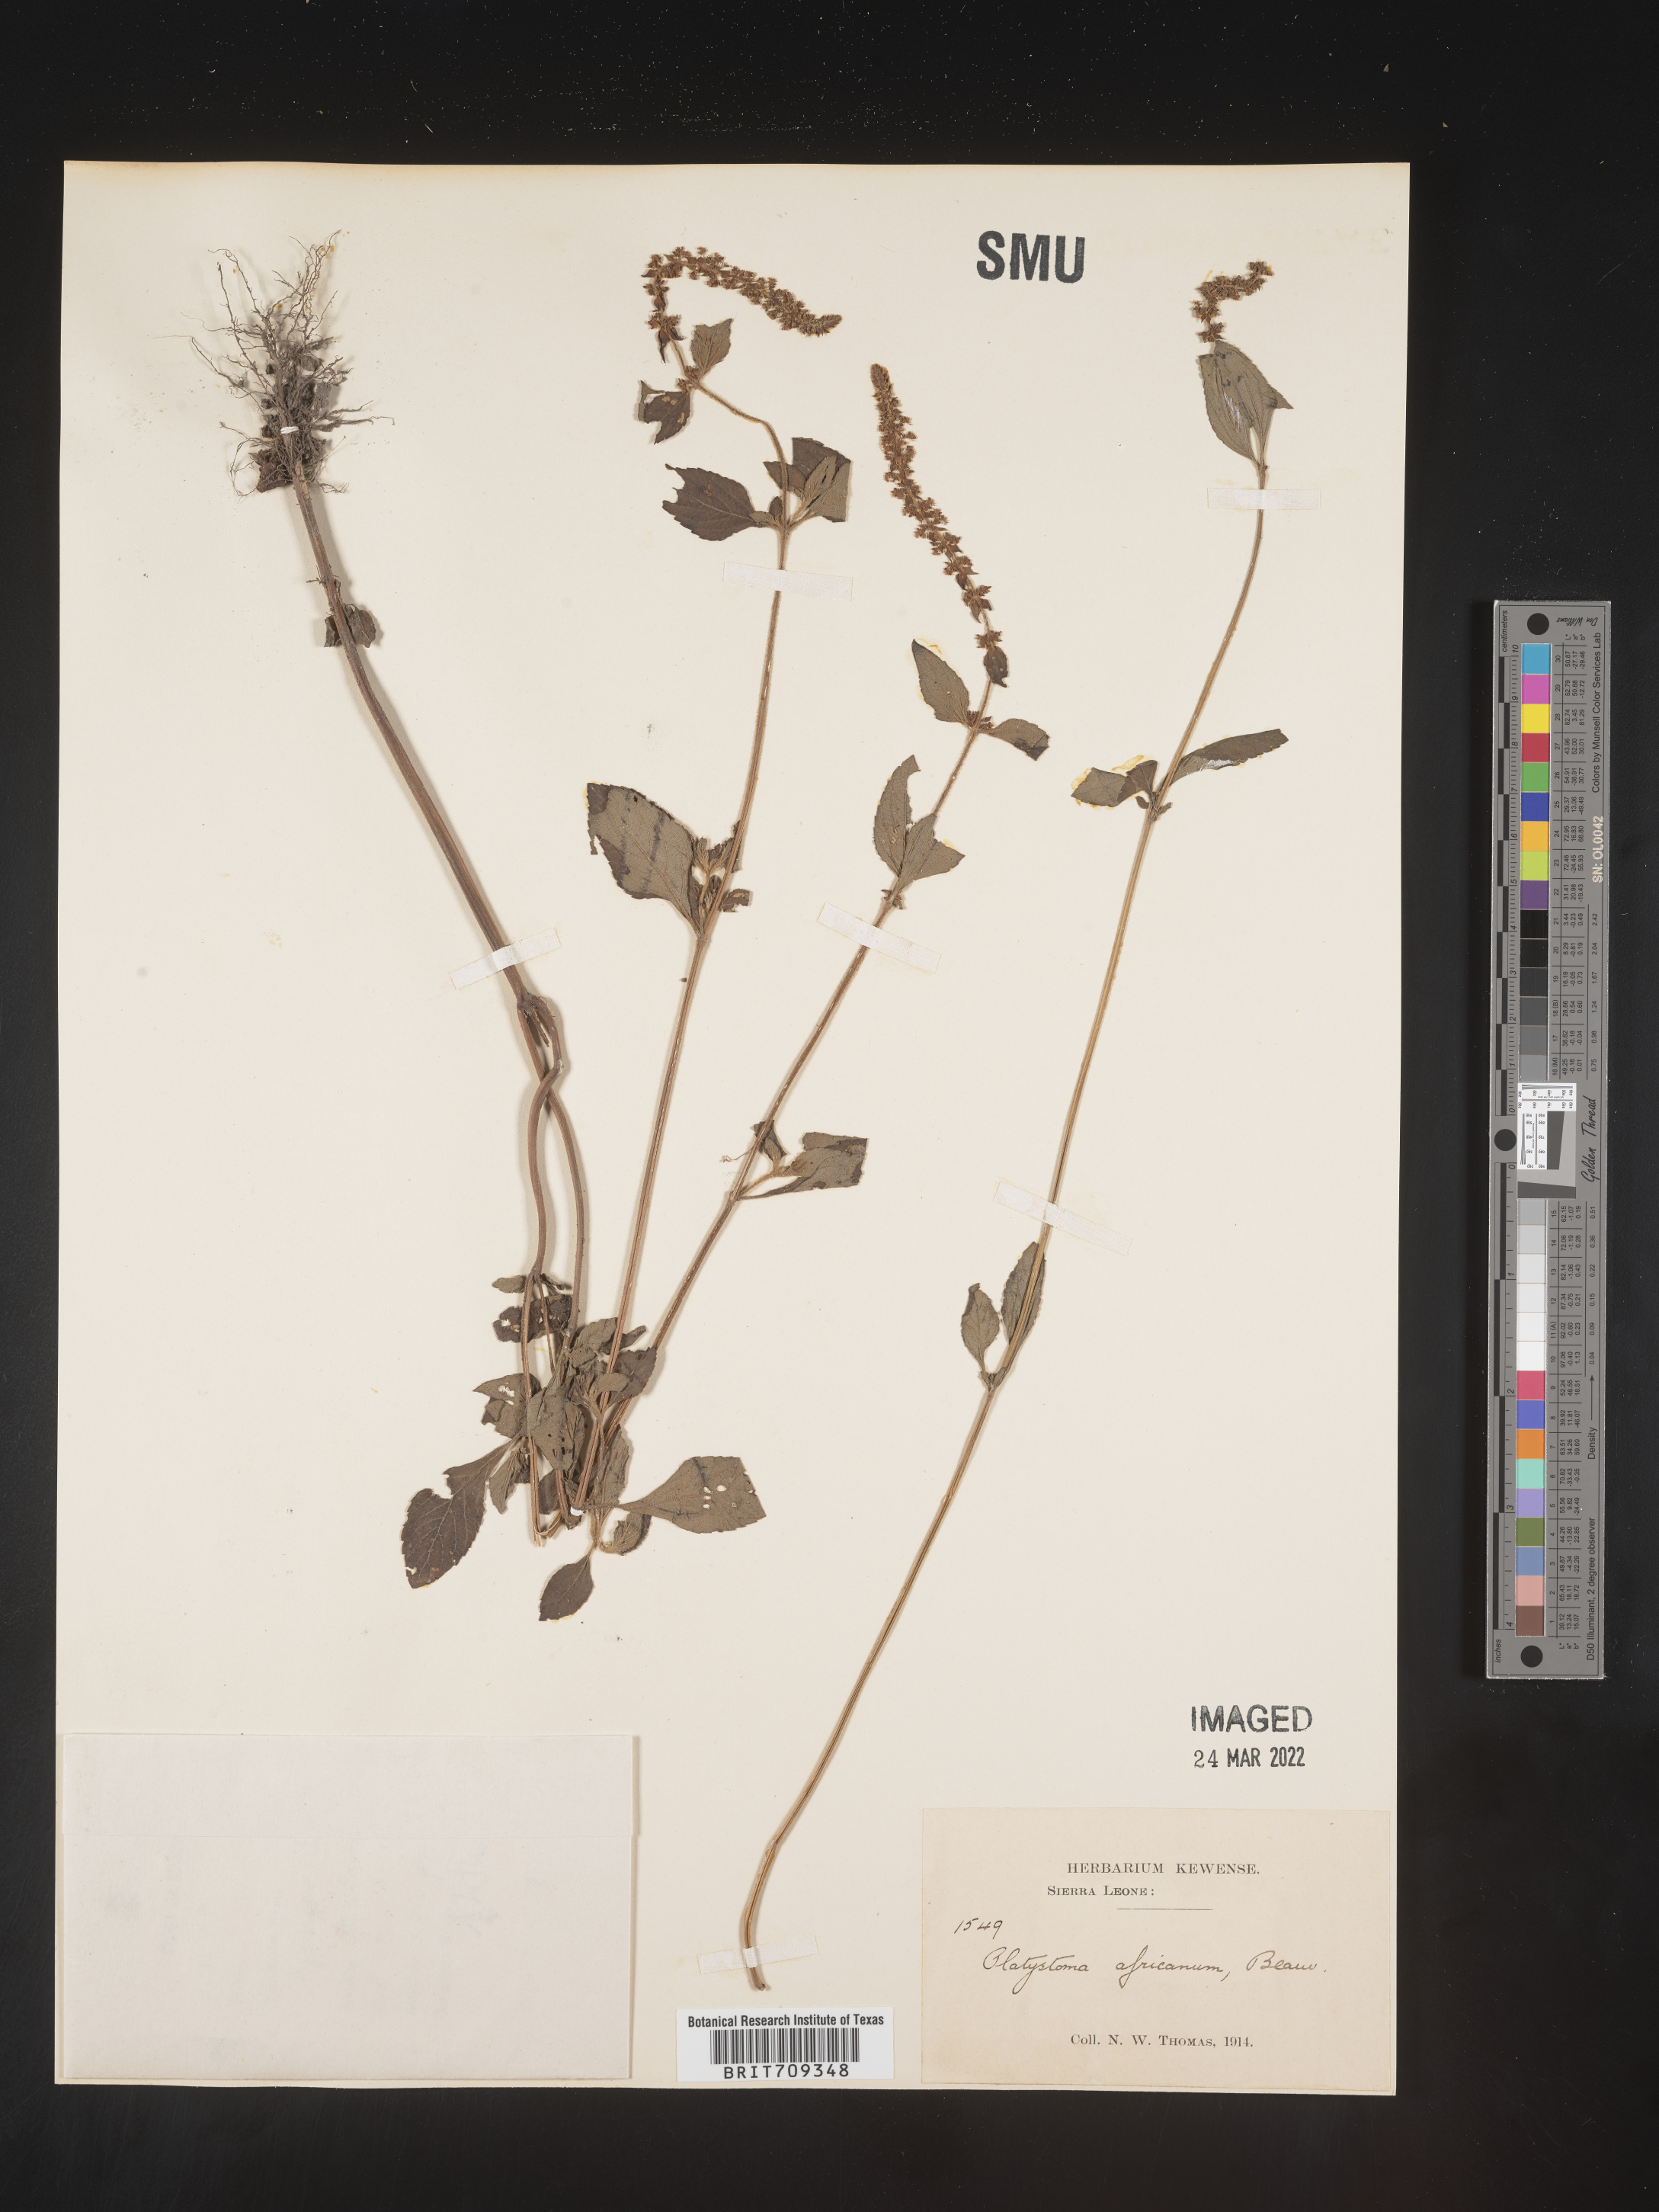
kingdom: Plantae
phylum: Tracheophyta
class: Magnoliopsida
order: Lamiales
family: Lamiaceae
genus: Platystoma
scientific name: Platystoma
